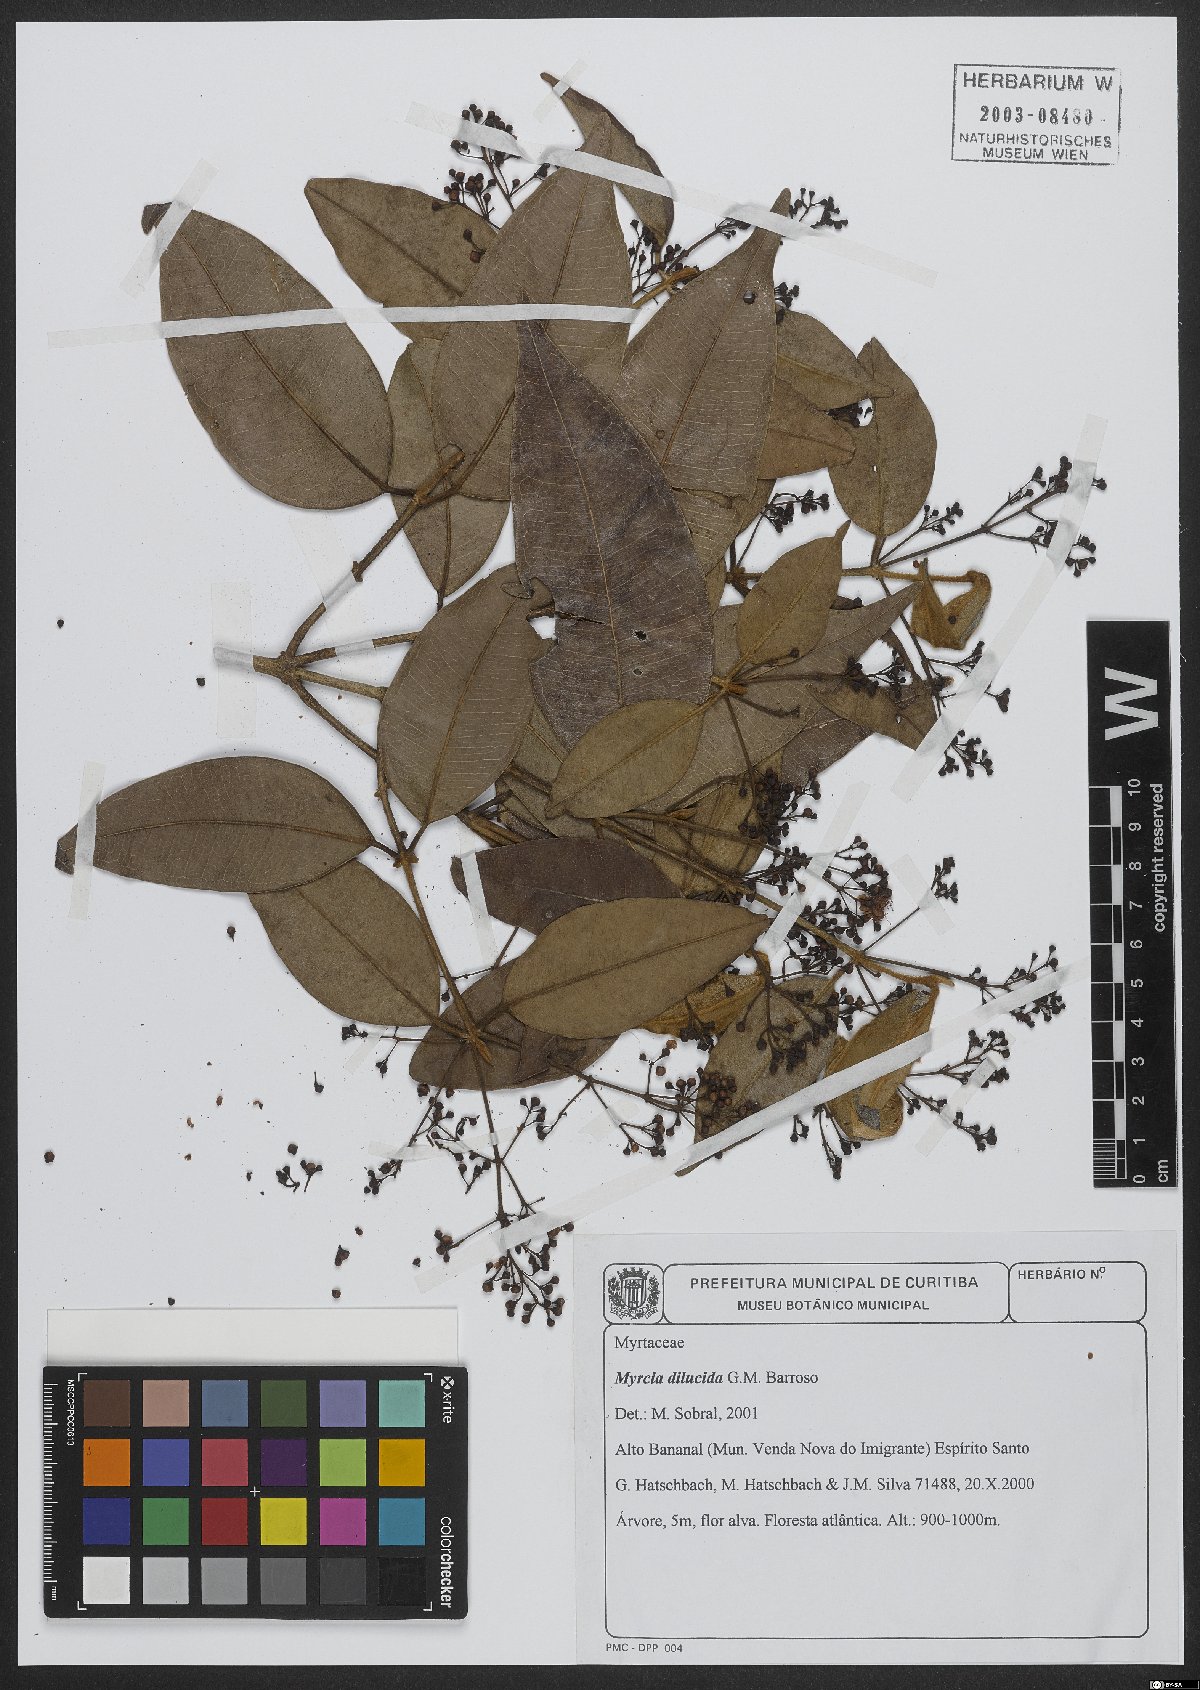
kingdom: Plantae
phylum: Tracheophyta
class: Magnoliopsida
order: Myrtales
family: Myrtaceae
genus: Myrcia
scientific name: Myrcia aethusa
